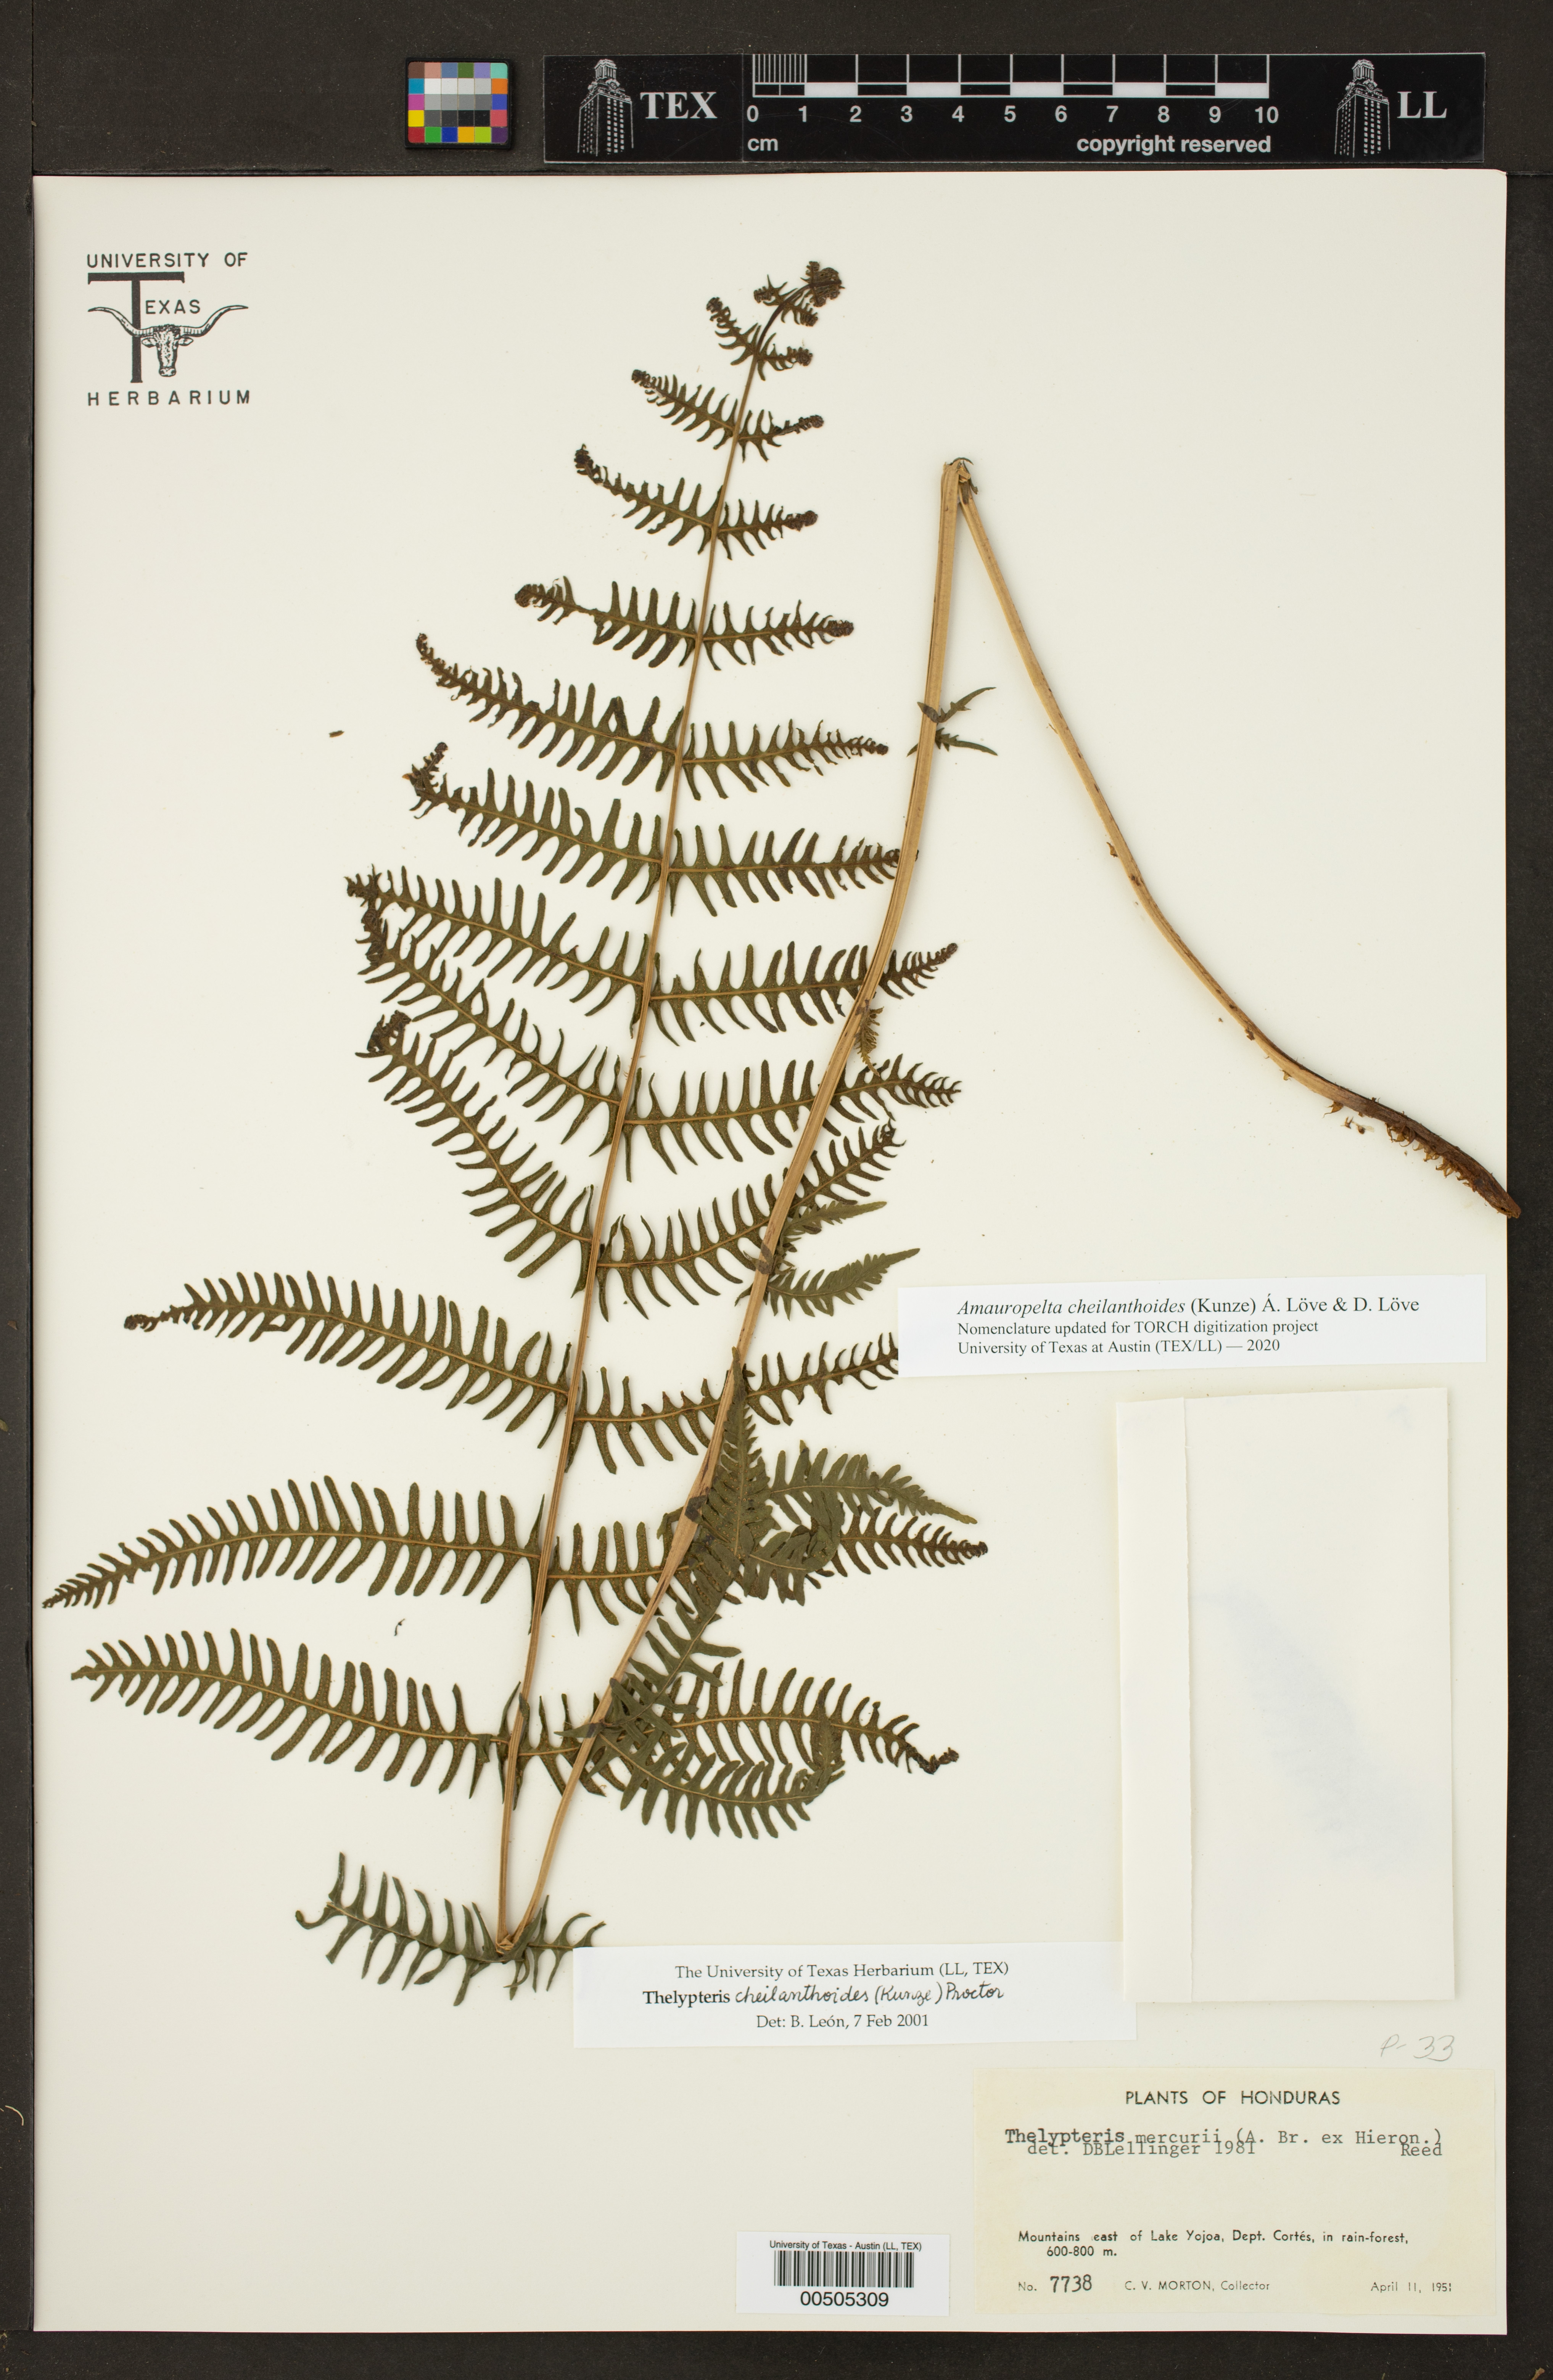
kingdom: Plantae
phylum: Tracheophyta
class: Polypodiopsida
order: Polypodiales
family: Thelypteridaceae
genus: Amauropelta
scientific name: Amauropelta cheilanthoides
